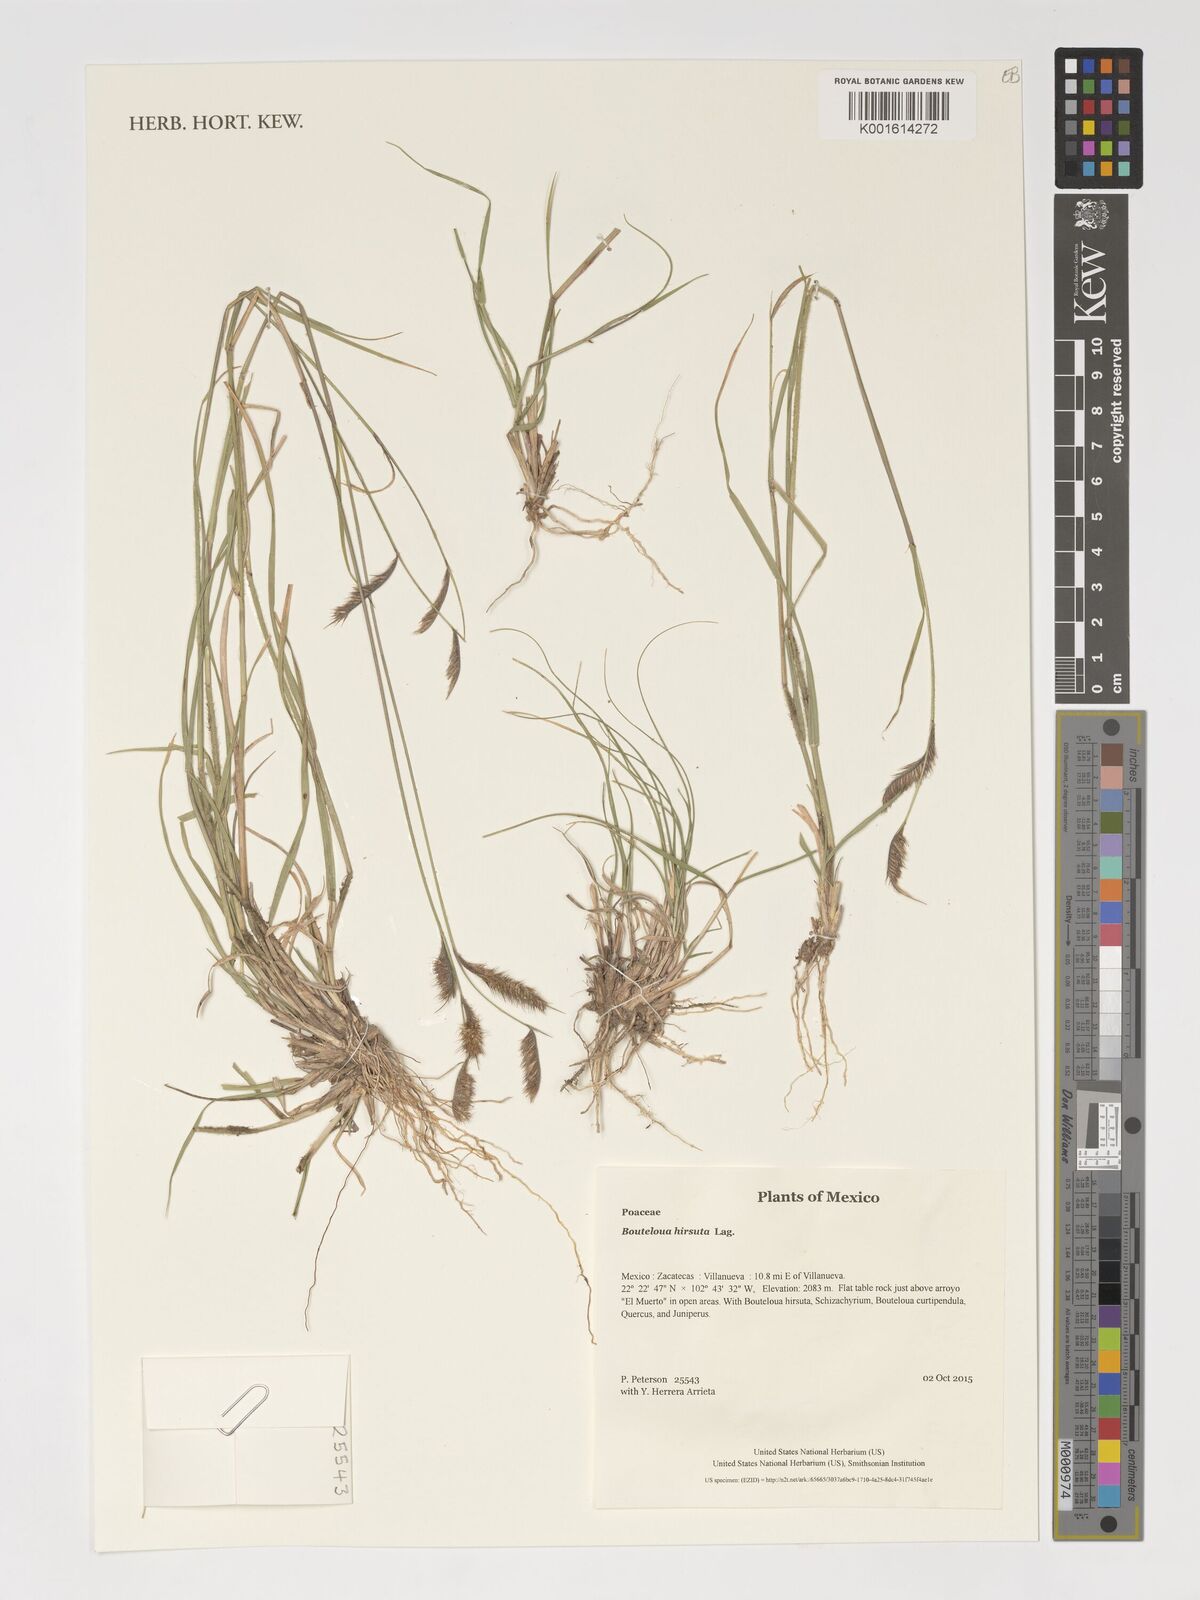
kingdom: Plantae
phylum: Tracheophyta
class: Liliopsida
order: Poales
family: Poaceae
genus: Bouteloua
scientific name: Bouteloua hirsuta
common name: Hairy grama
